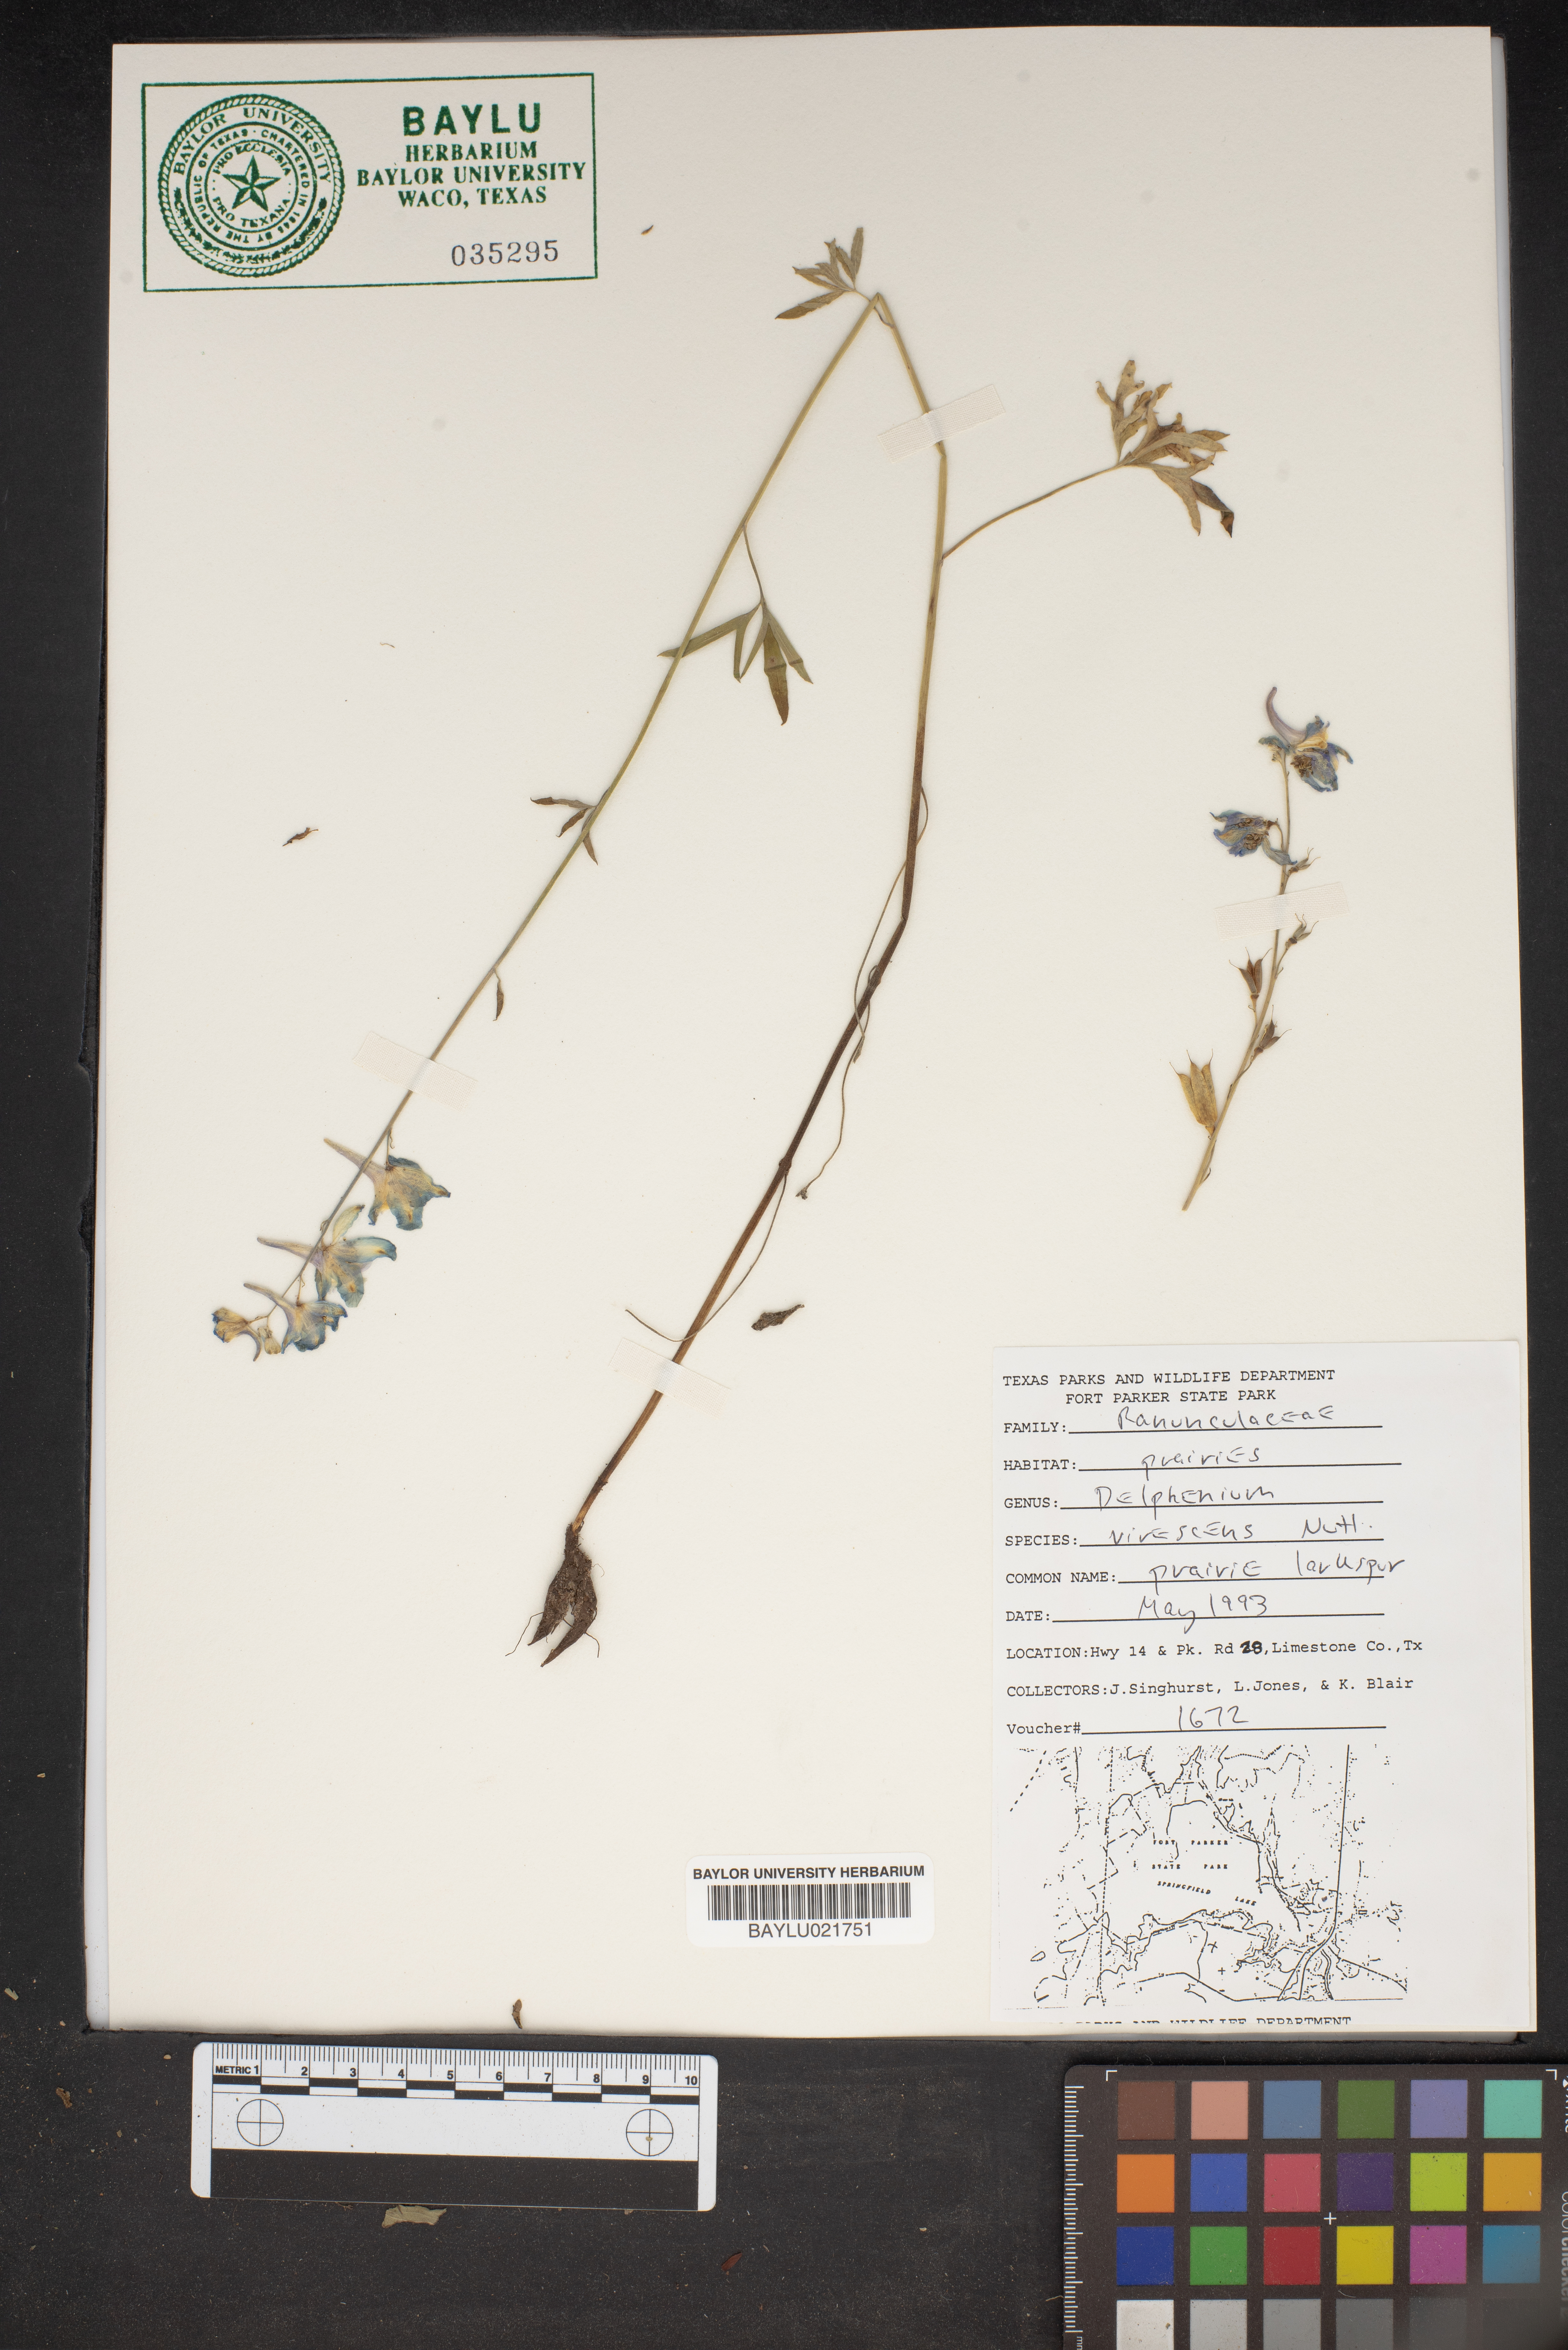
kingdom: Plantae
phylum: Tracheophyta
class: Magnoliopsida
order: Ranunculales
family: Ranunculaceae
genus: Delphinium
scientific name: Delphinium carolinianum
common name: Carolina larkspur
